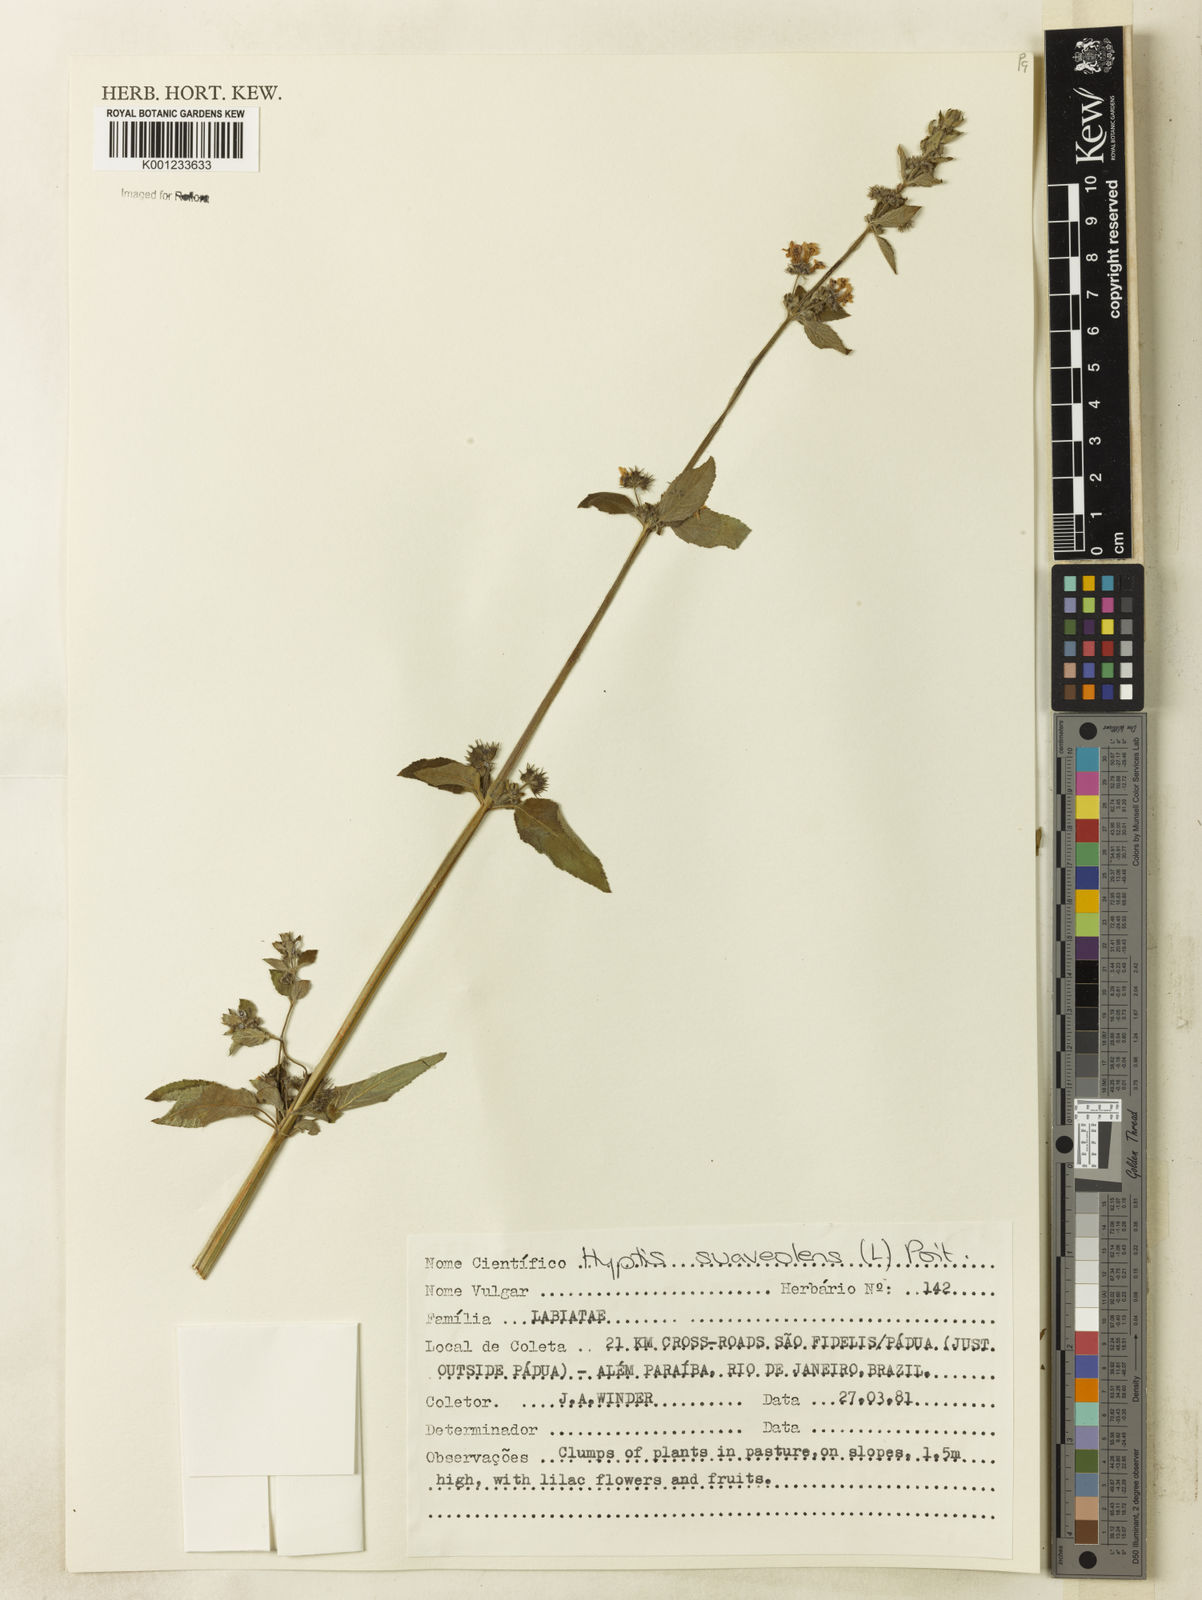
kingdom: Plantae
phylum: Tracheophyta
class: Magnoliopsida
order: Lamiales
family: Lamiaceae
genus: Mesosphaerum
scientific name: Mesosphaerum suaveolens
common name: Pignut
